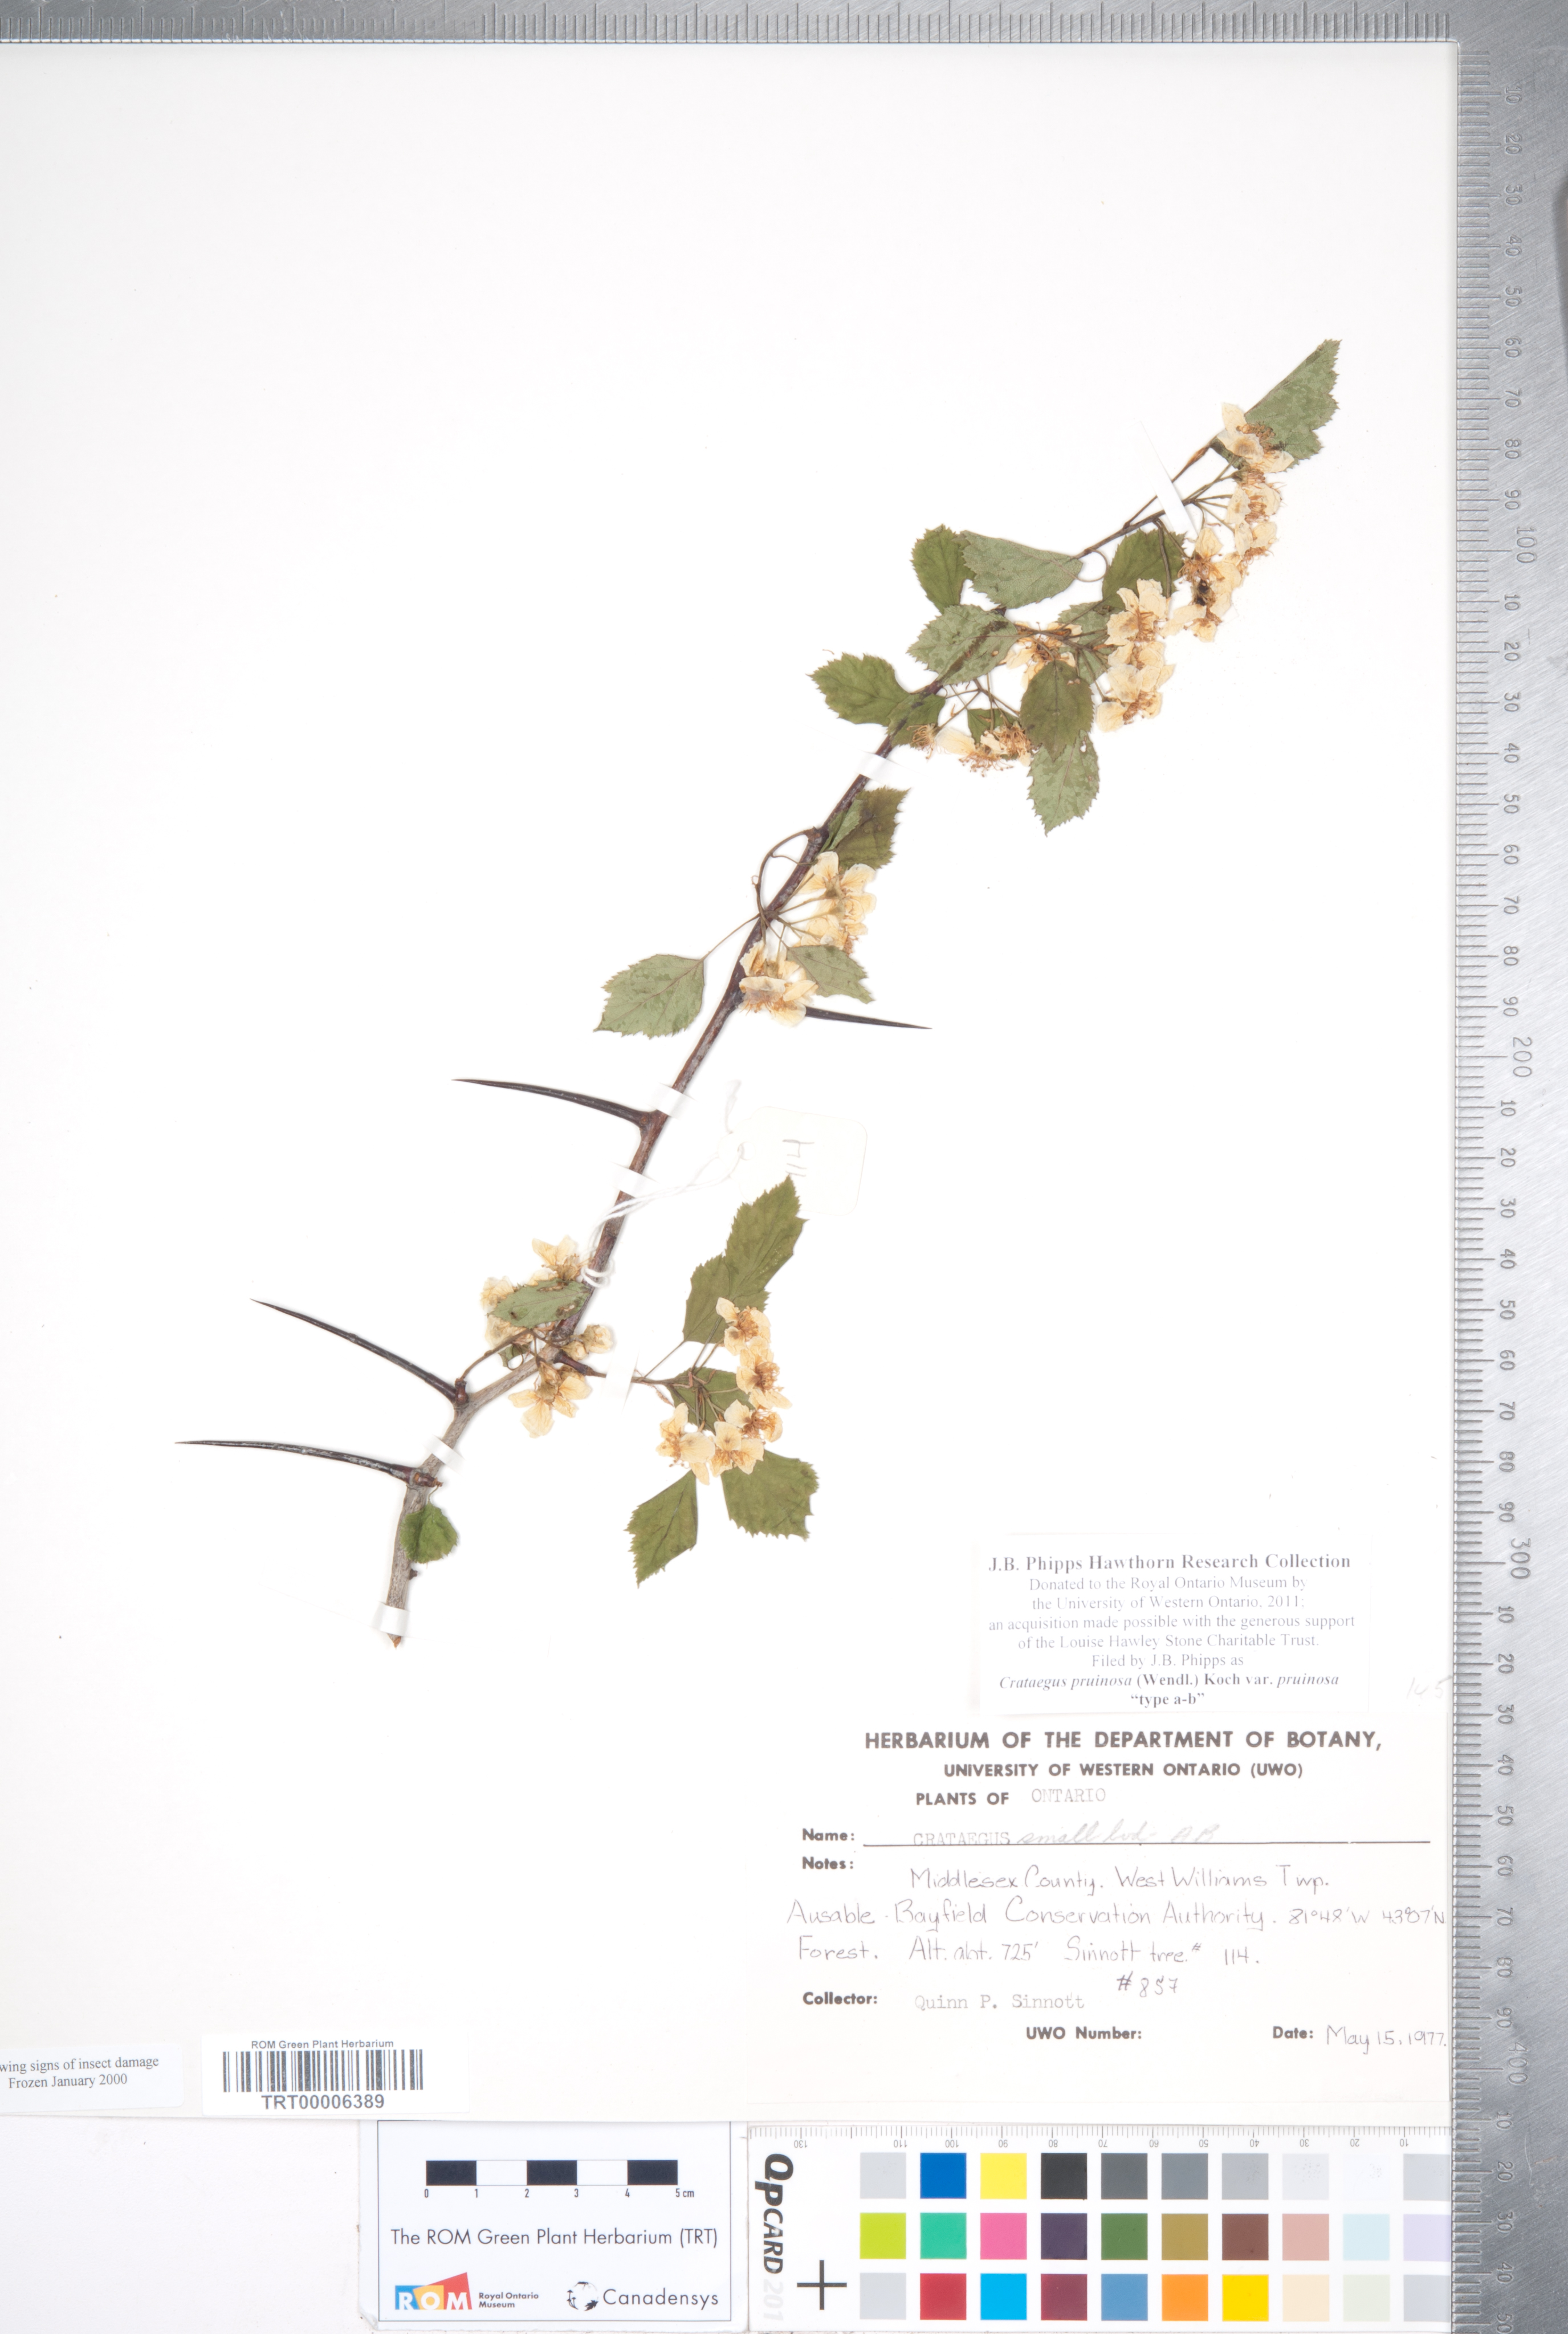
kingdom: Plantae
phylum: Tracheophyta
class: Magnoliopsida
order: Rosales
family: Rosaceae
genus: Crataegus
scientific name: Crataegus pruinosa
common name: Waxy-fruit hawthorn
